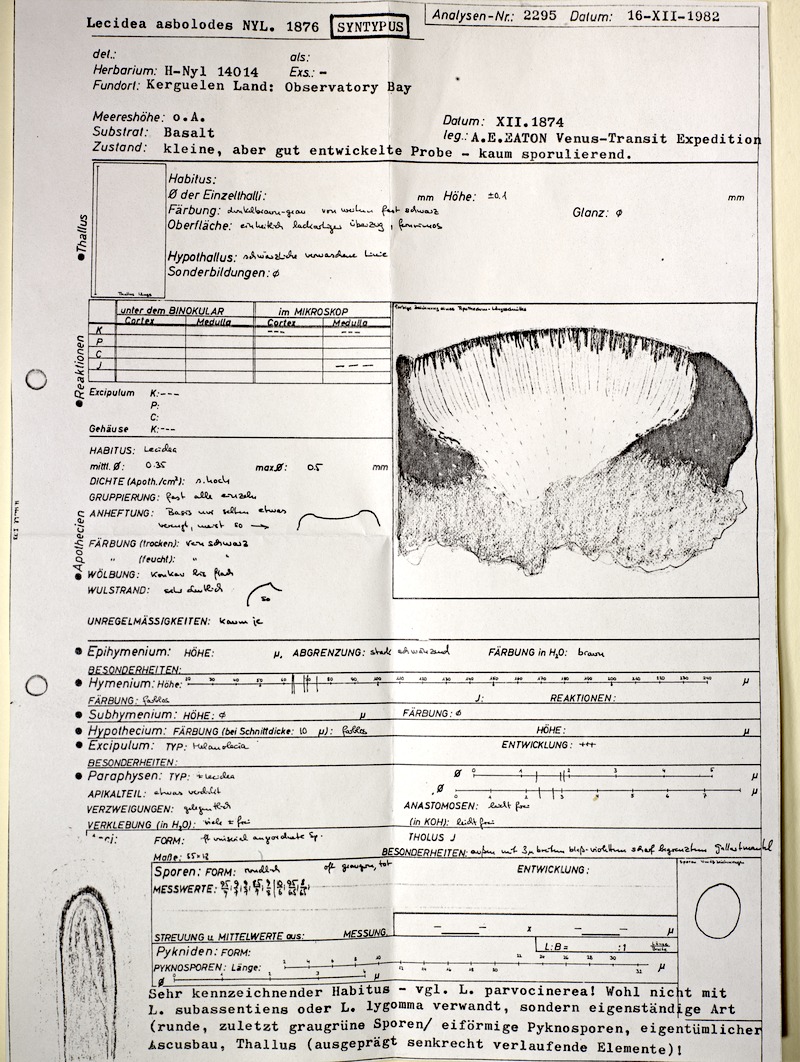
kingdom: Fungi
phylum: Ascomycota
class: Lecanoromycetes
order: Umbilicariales
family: Fuscideaceae
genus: Fuscidea
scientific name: Fuscidea asbolodes
